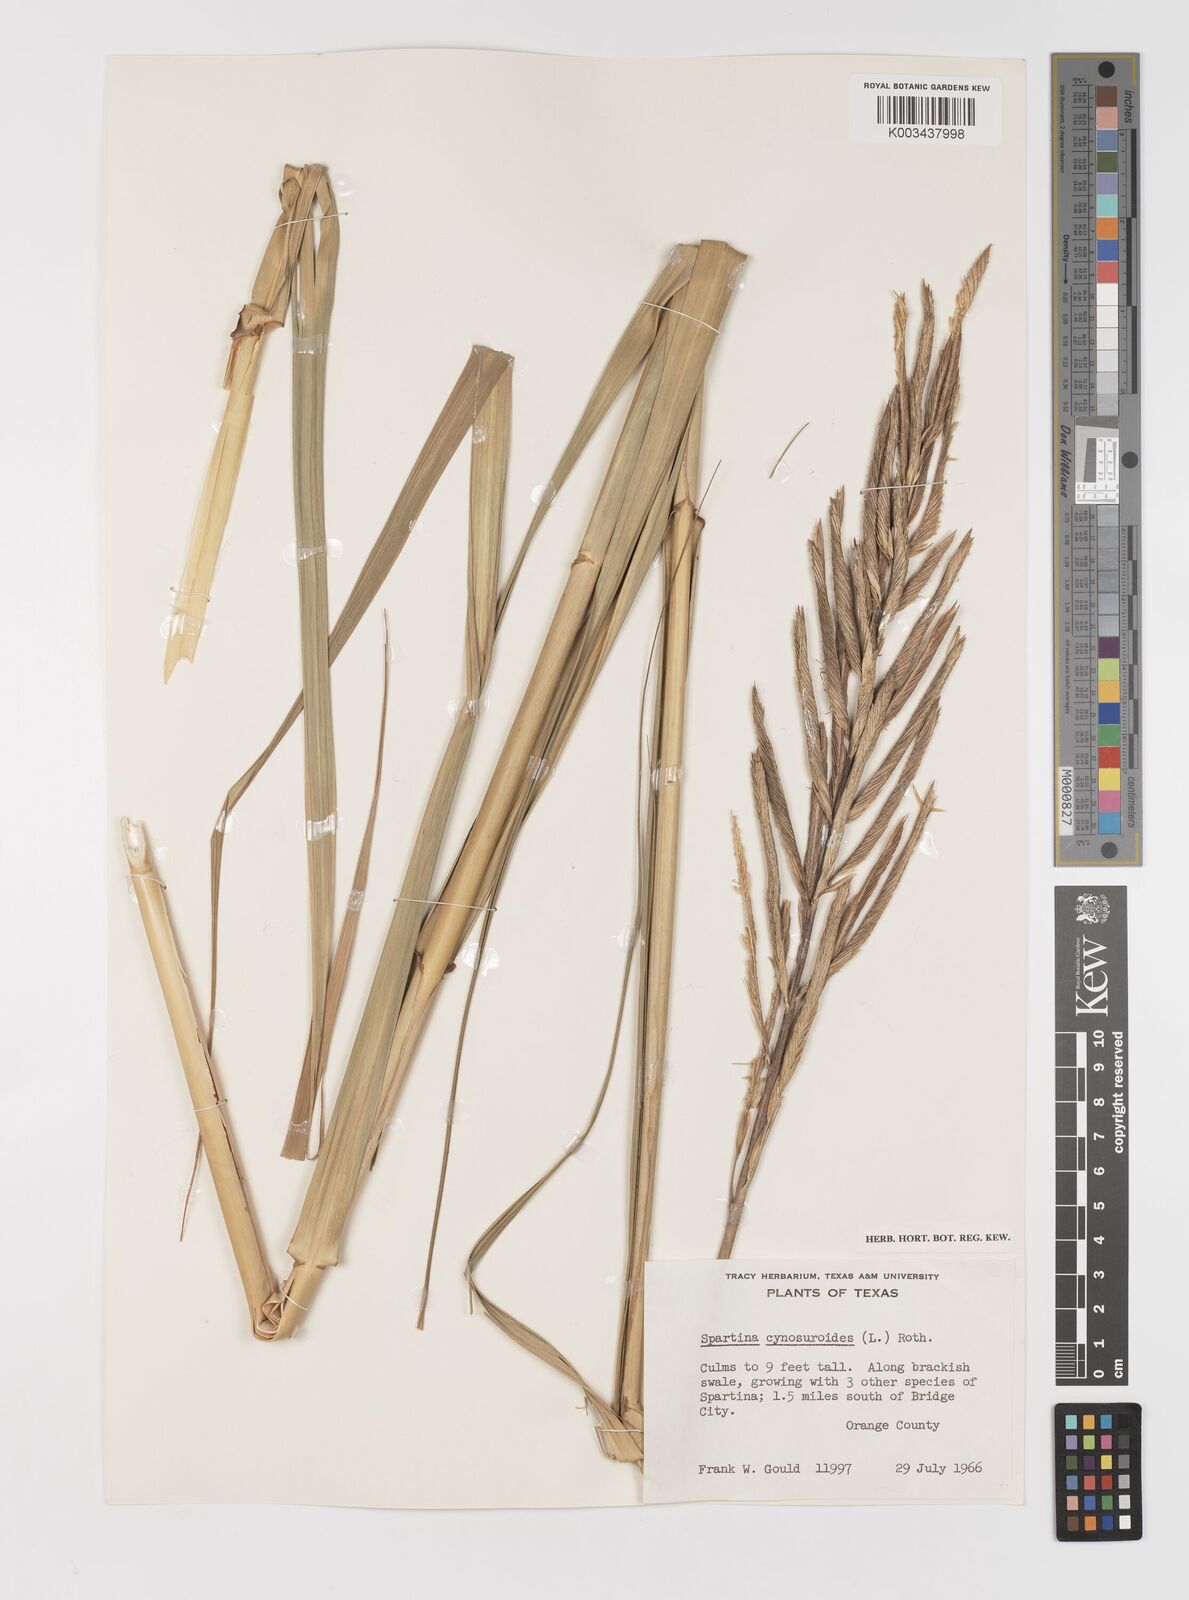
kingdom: Plantae
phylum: Tracheophyta
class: Liliopsida
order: Poales
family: Poaceae
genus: Sporobolus
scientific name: Sporobolus cynosuroides
